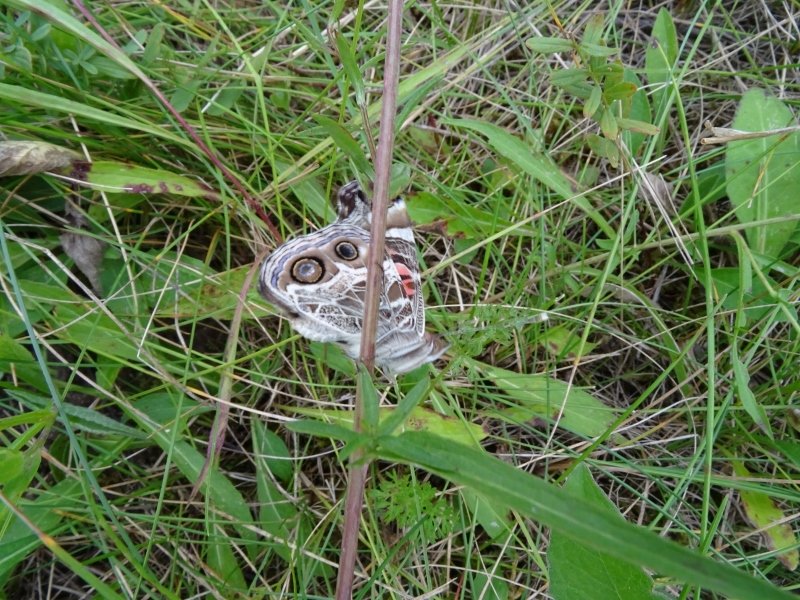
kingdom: Animalia
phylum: Arthropoda
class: Insecta
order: Lepidoptera
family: Nymphalidae
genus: Vanessa
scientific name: Vanessa virginiensis
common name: American Lady
